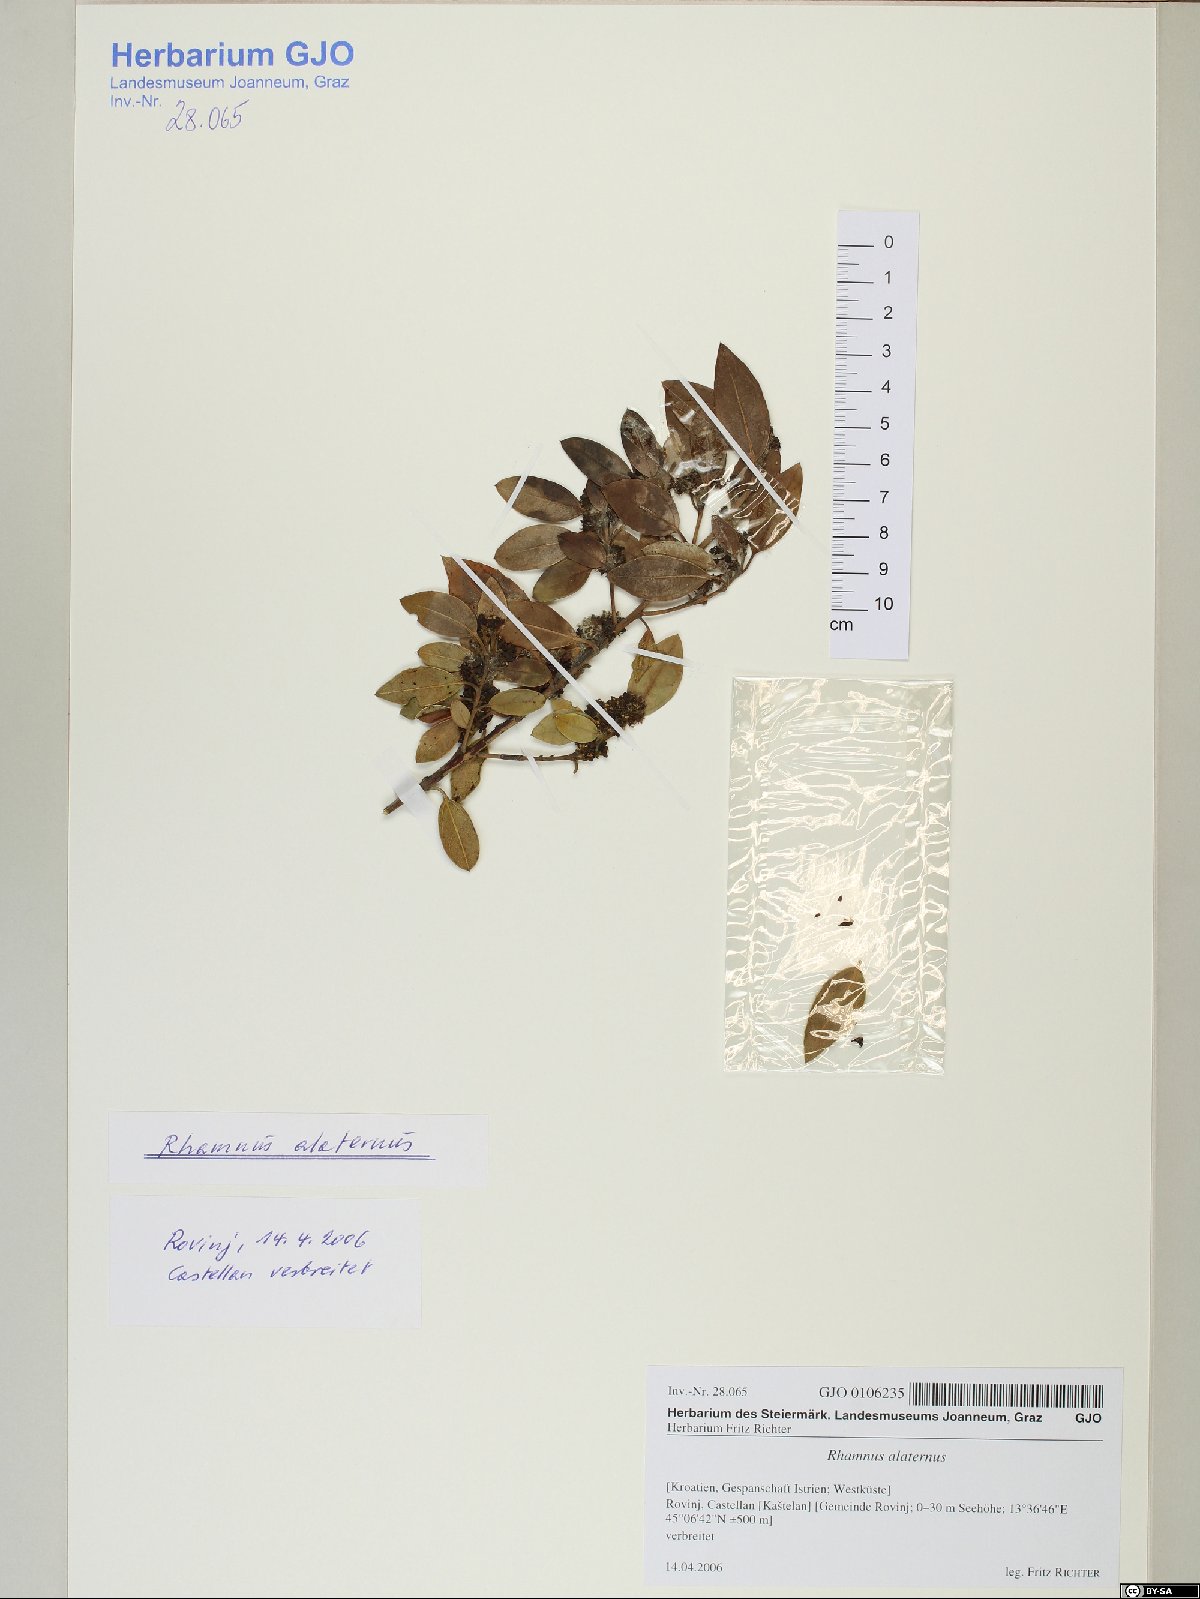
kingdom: Plantae
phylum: Tracheophyta
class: Magnoliopsida
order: Rosales
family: Rhamnaceae
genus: Rhamnus
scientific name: Rhamnus alaternus
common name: Mediterranean buckthorn
